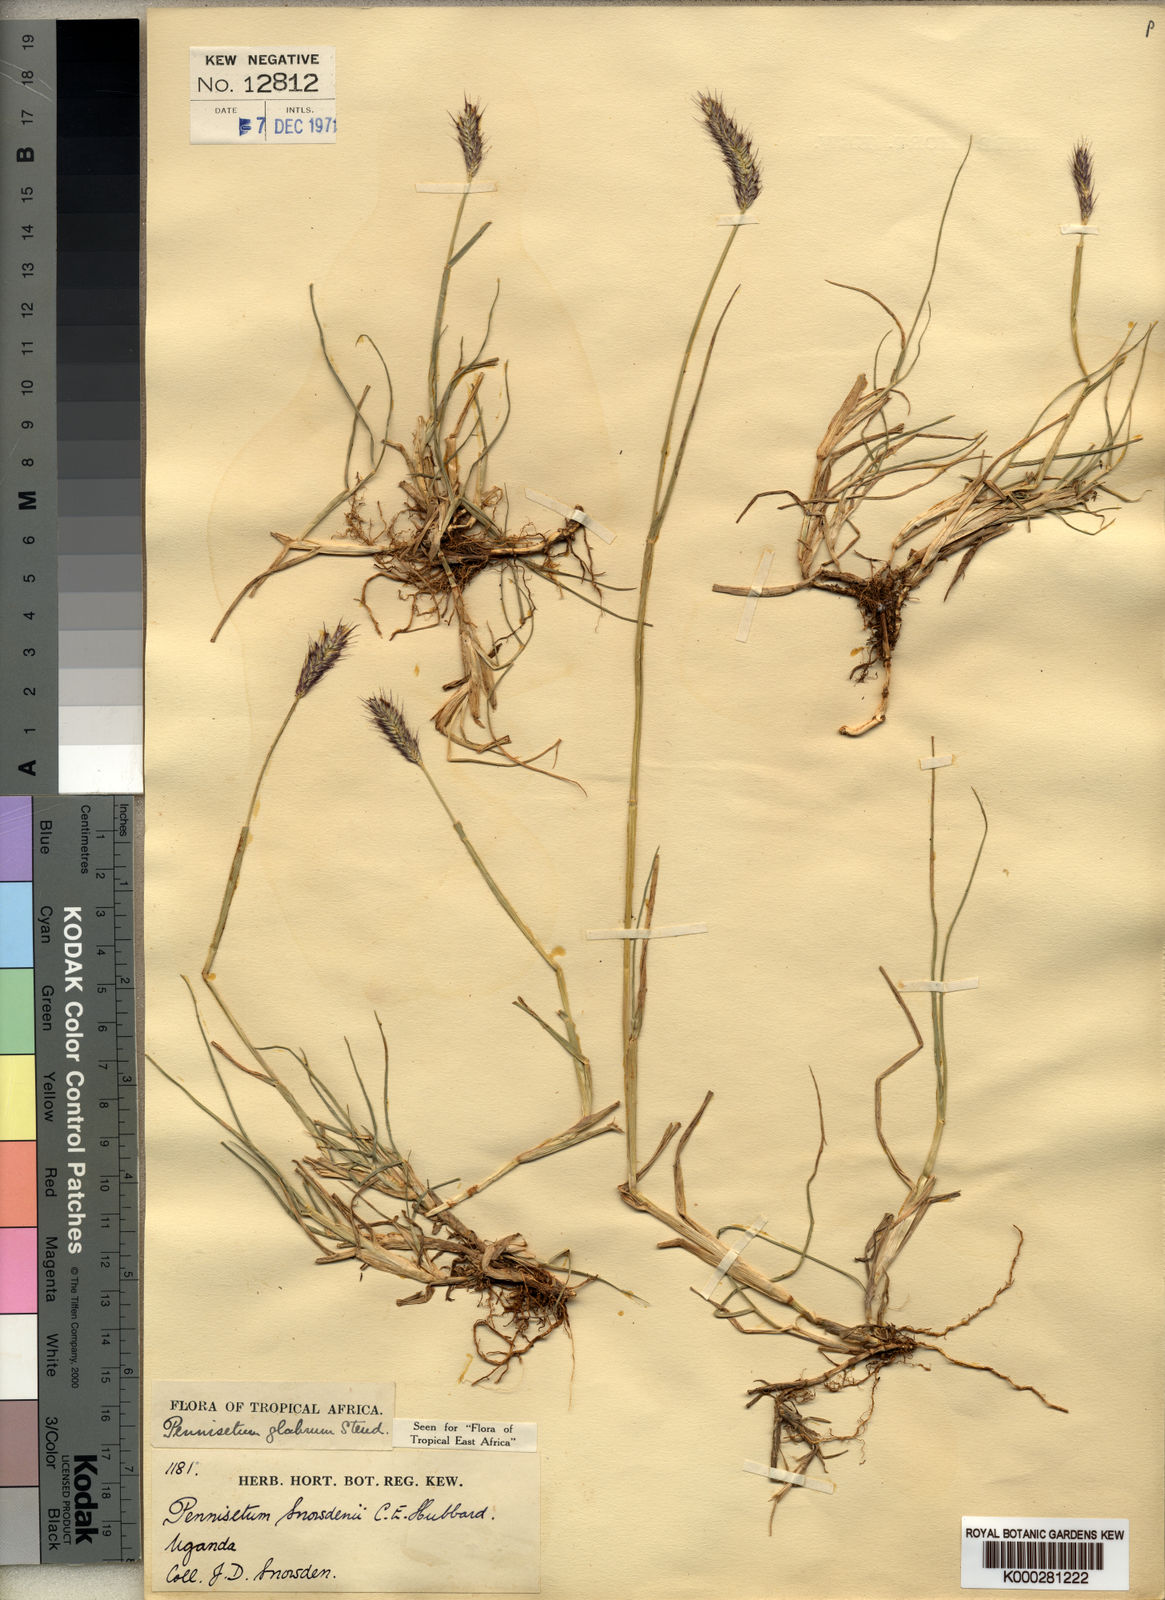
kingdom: Plantae
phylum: Tracheophyta
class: Liliopsida
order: Poales
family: Poaceae
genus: Cenchrus
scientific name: Cenchrus geniculatus
